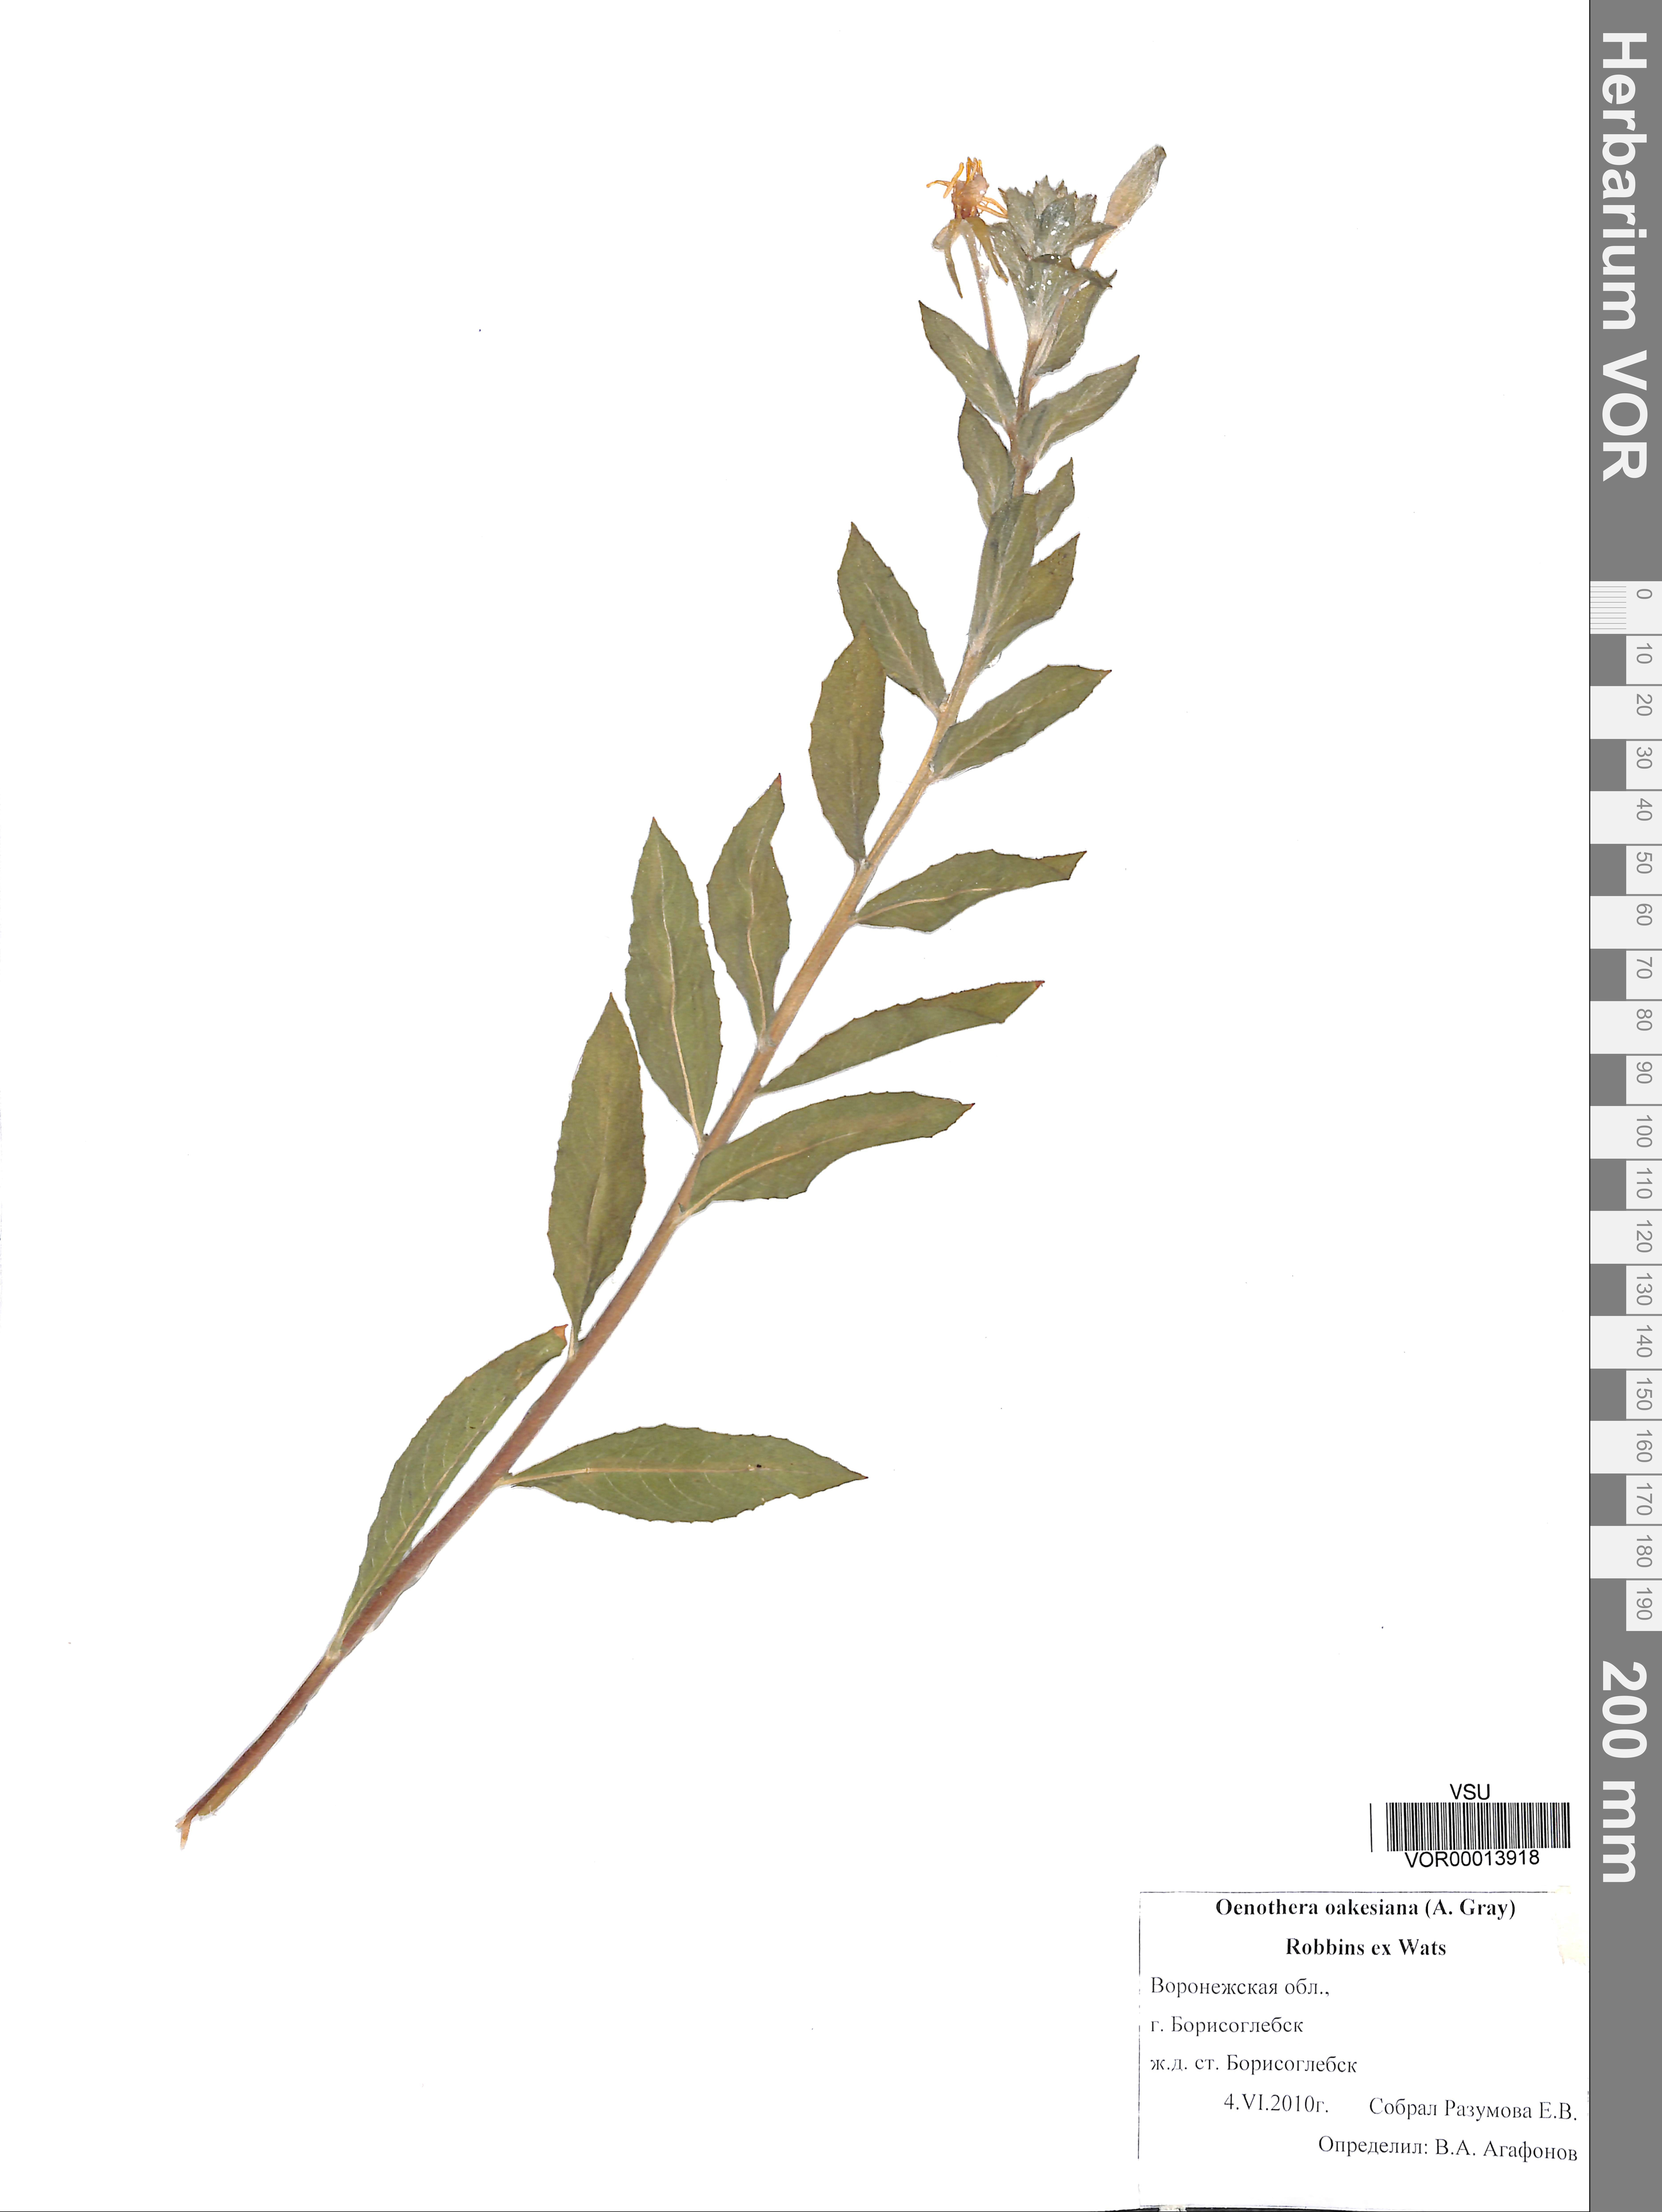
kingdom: Plantae
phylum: Tracheophyta
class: Magnoliopsida
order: Myrtales
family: Onagraceae
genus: Oenothera
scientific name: Oenothera oakesiana
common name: Oakes' evening-primrose
